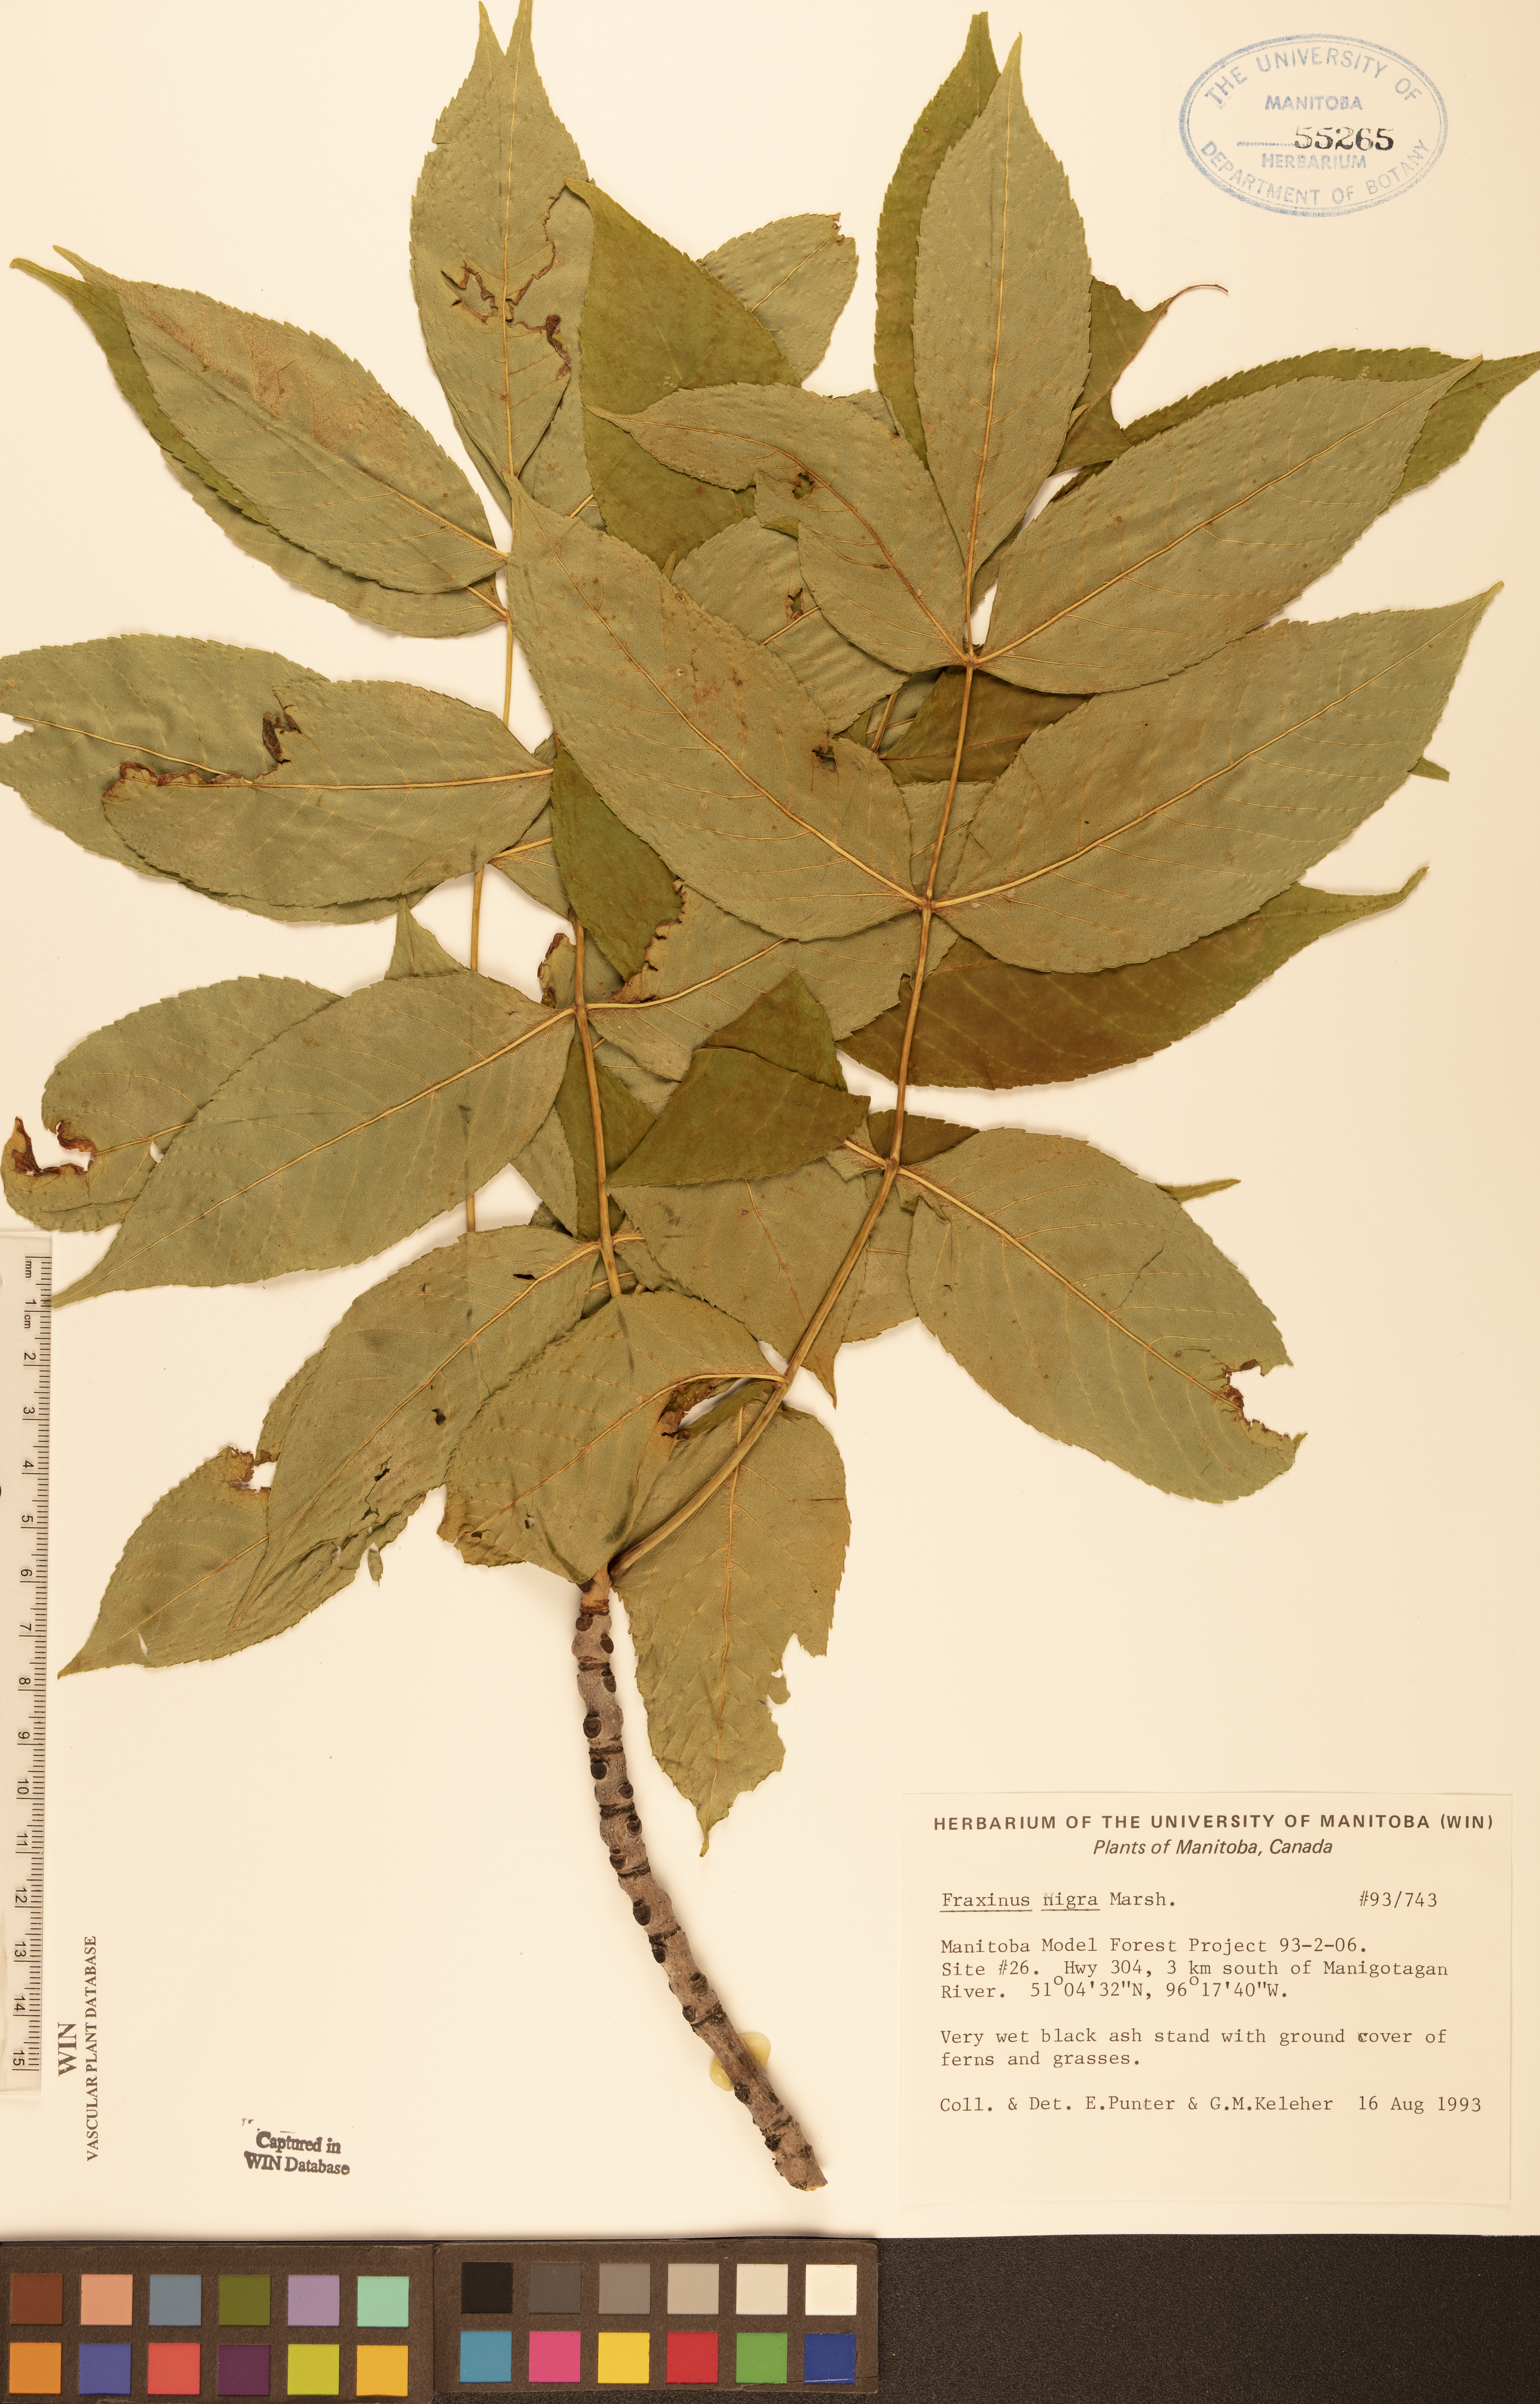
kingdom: Plantae
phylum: Tracheophyta
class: Magnoliopsida
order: Lamiales
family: Oleaceae
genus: Fraxinus
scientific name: Fraxinus nigra
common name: Black ash
